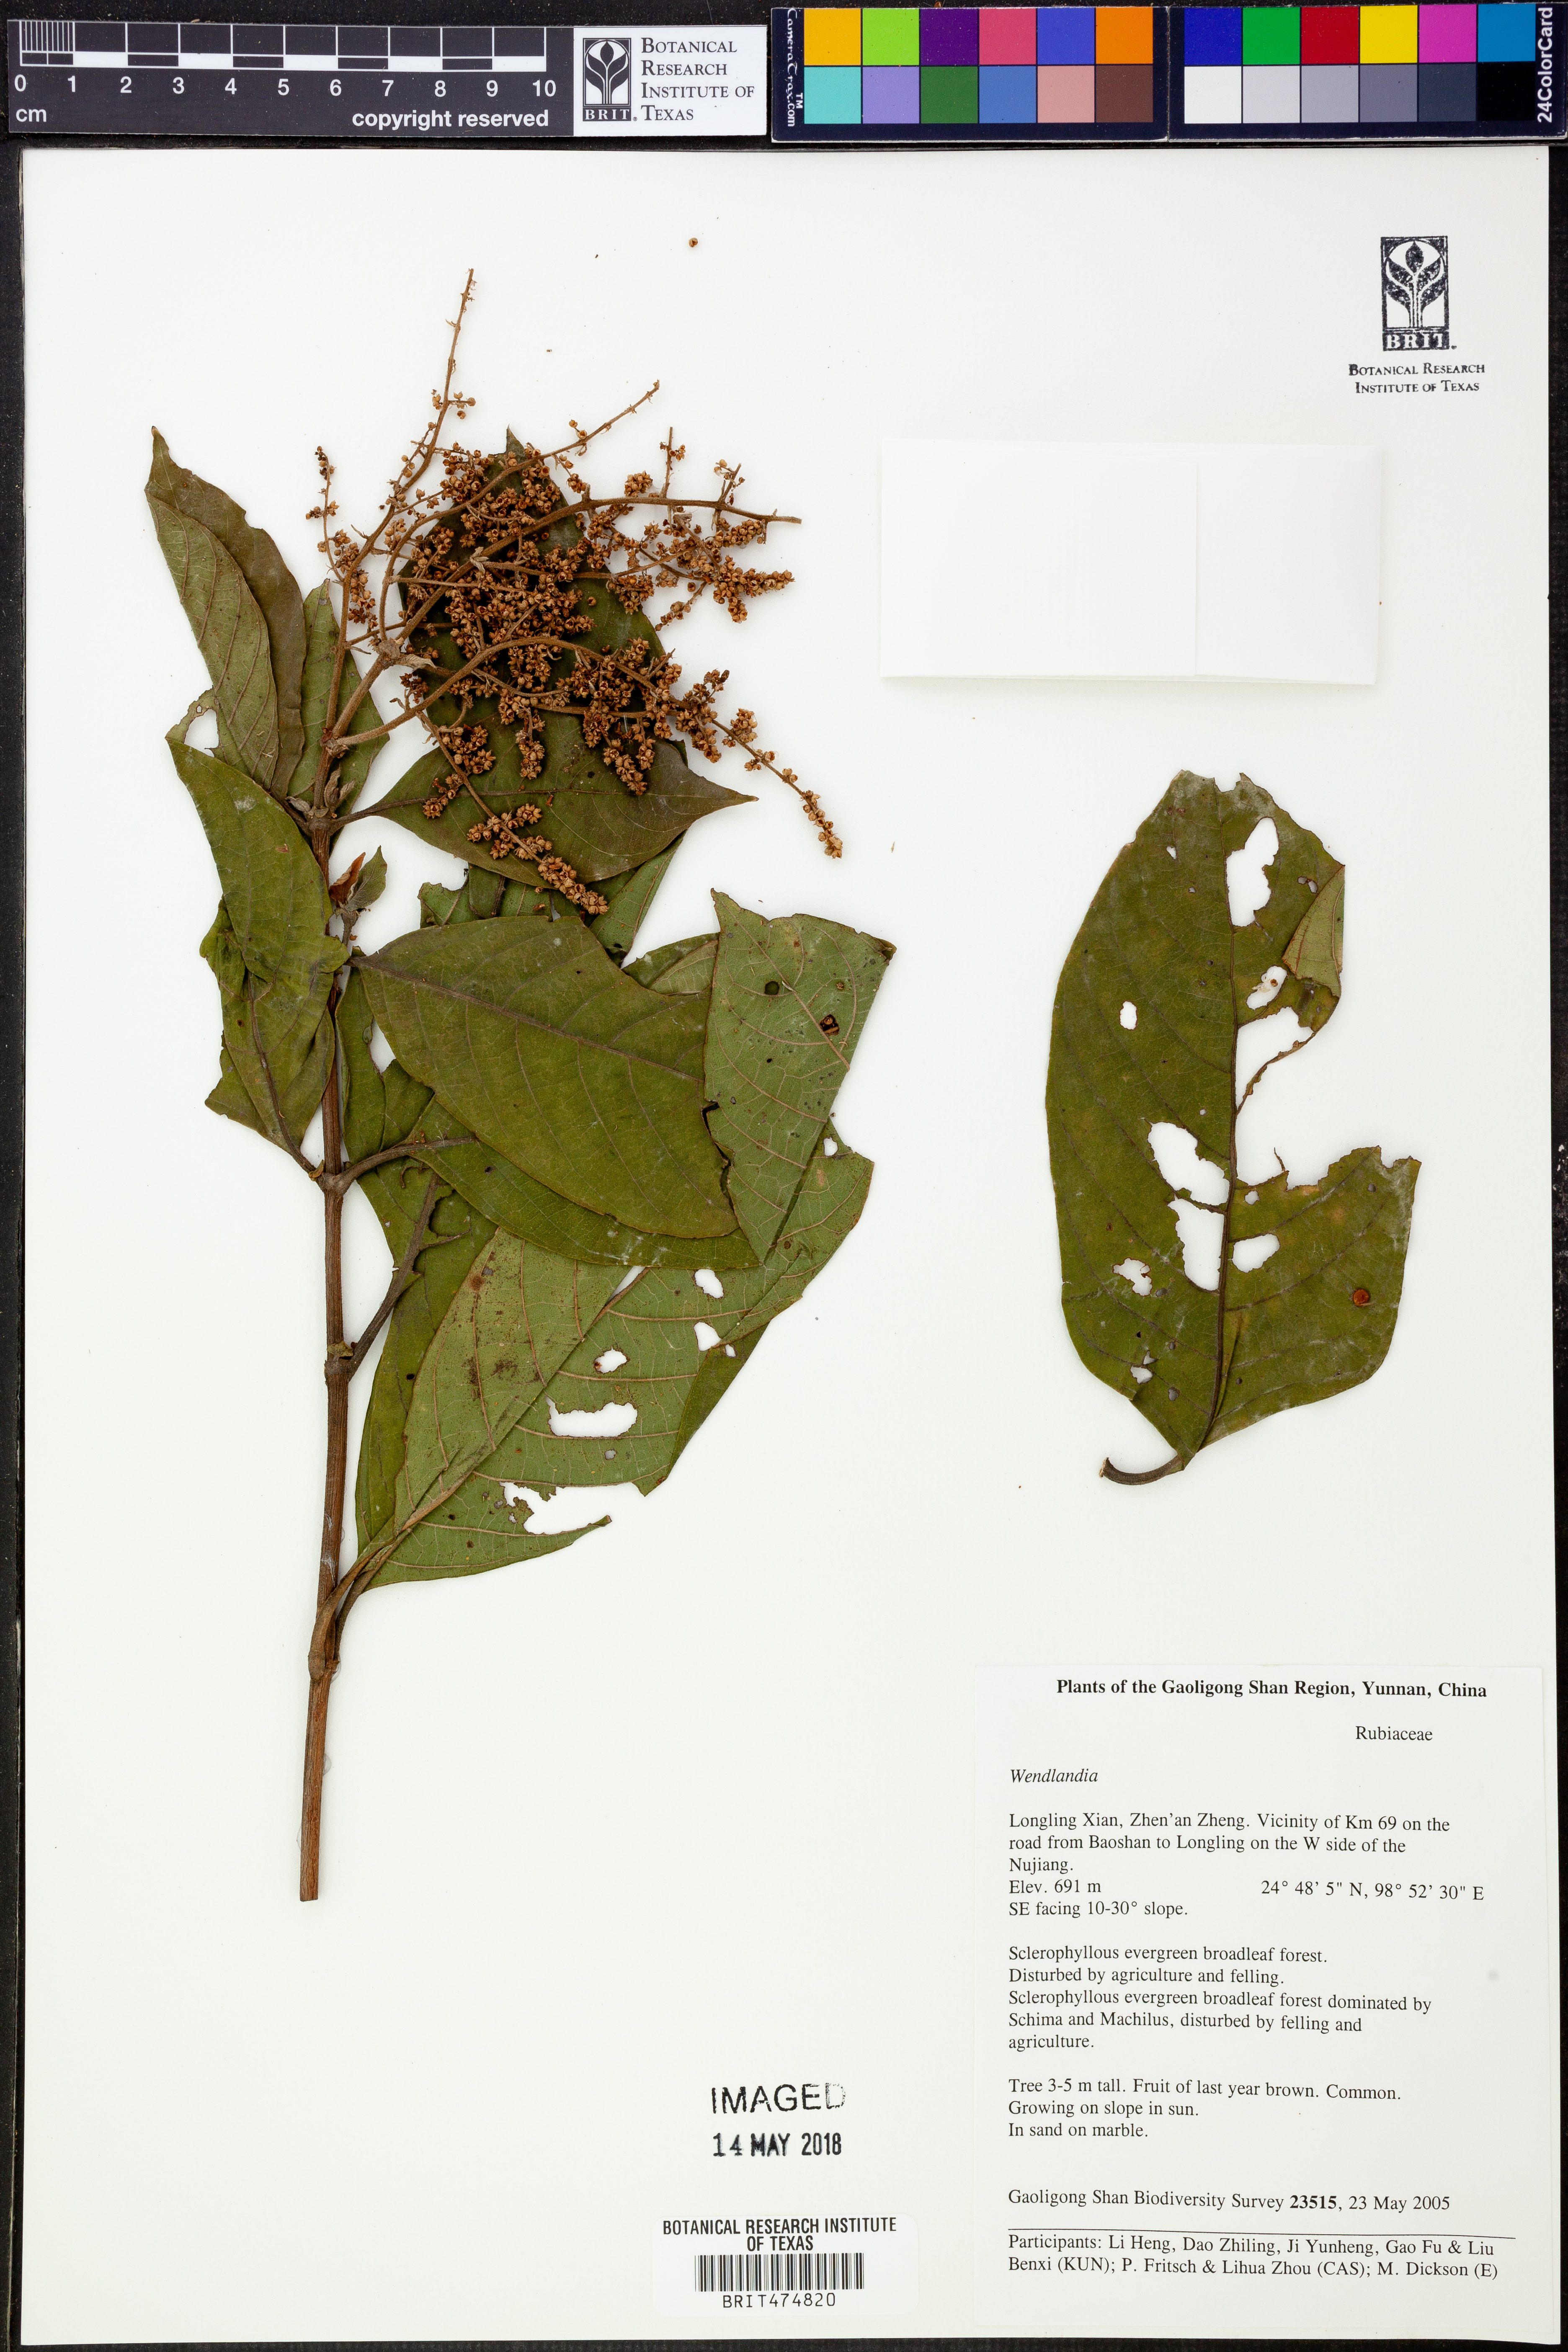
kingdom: Plantae
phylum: Tracheophyta
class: Magnoliopsida
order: Gentianales
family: Rubiaceae
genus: Wendlandia
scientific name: Wendlandia
